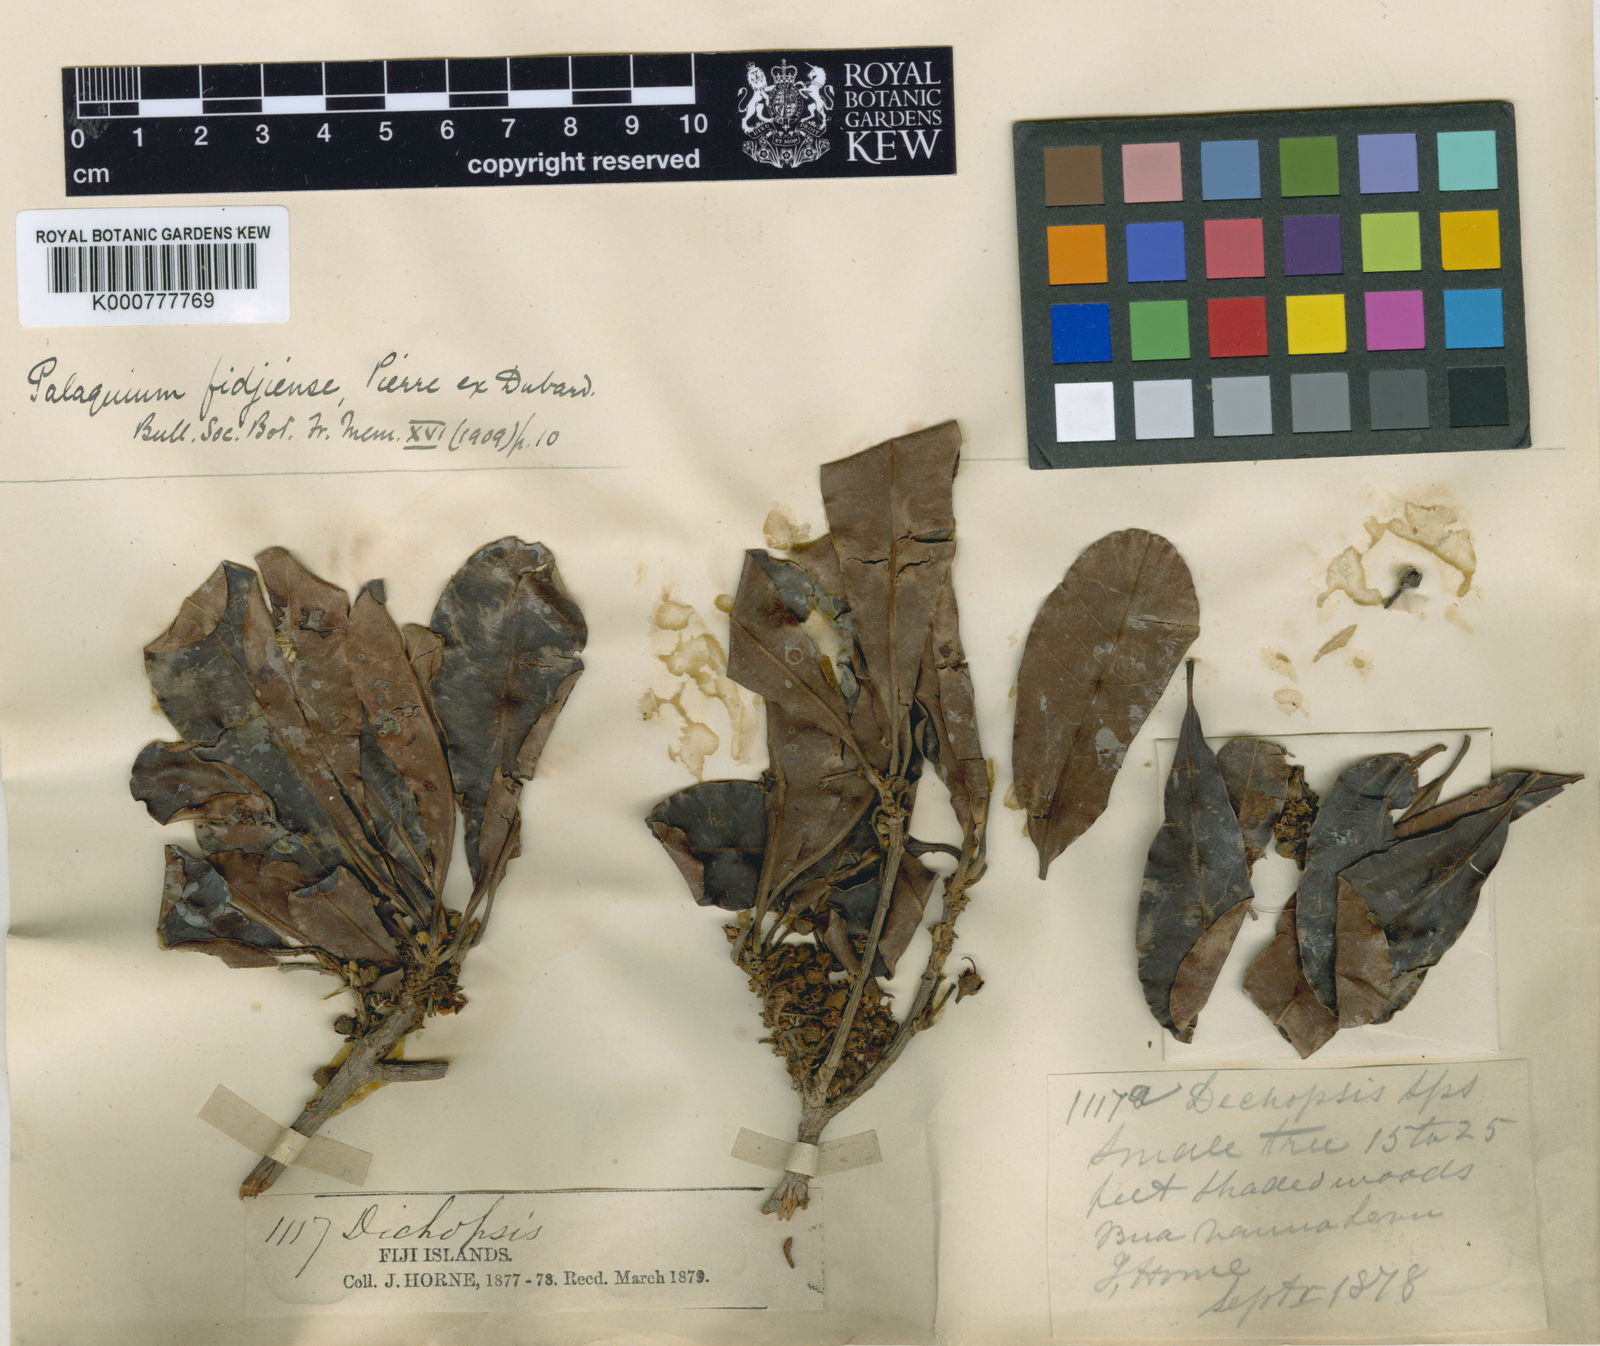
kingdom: Plantae
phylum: Tracheophyta
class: Magnoliopsida
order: Ericales
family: Sapotaceae
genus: Palaquium
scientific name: Palaquium fidjiense
